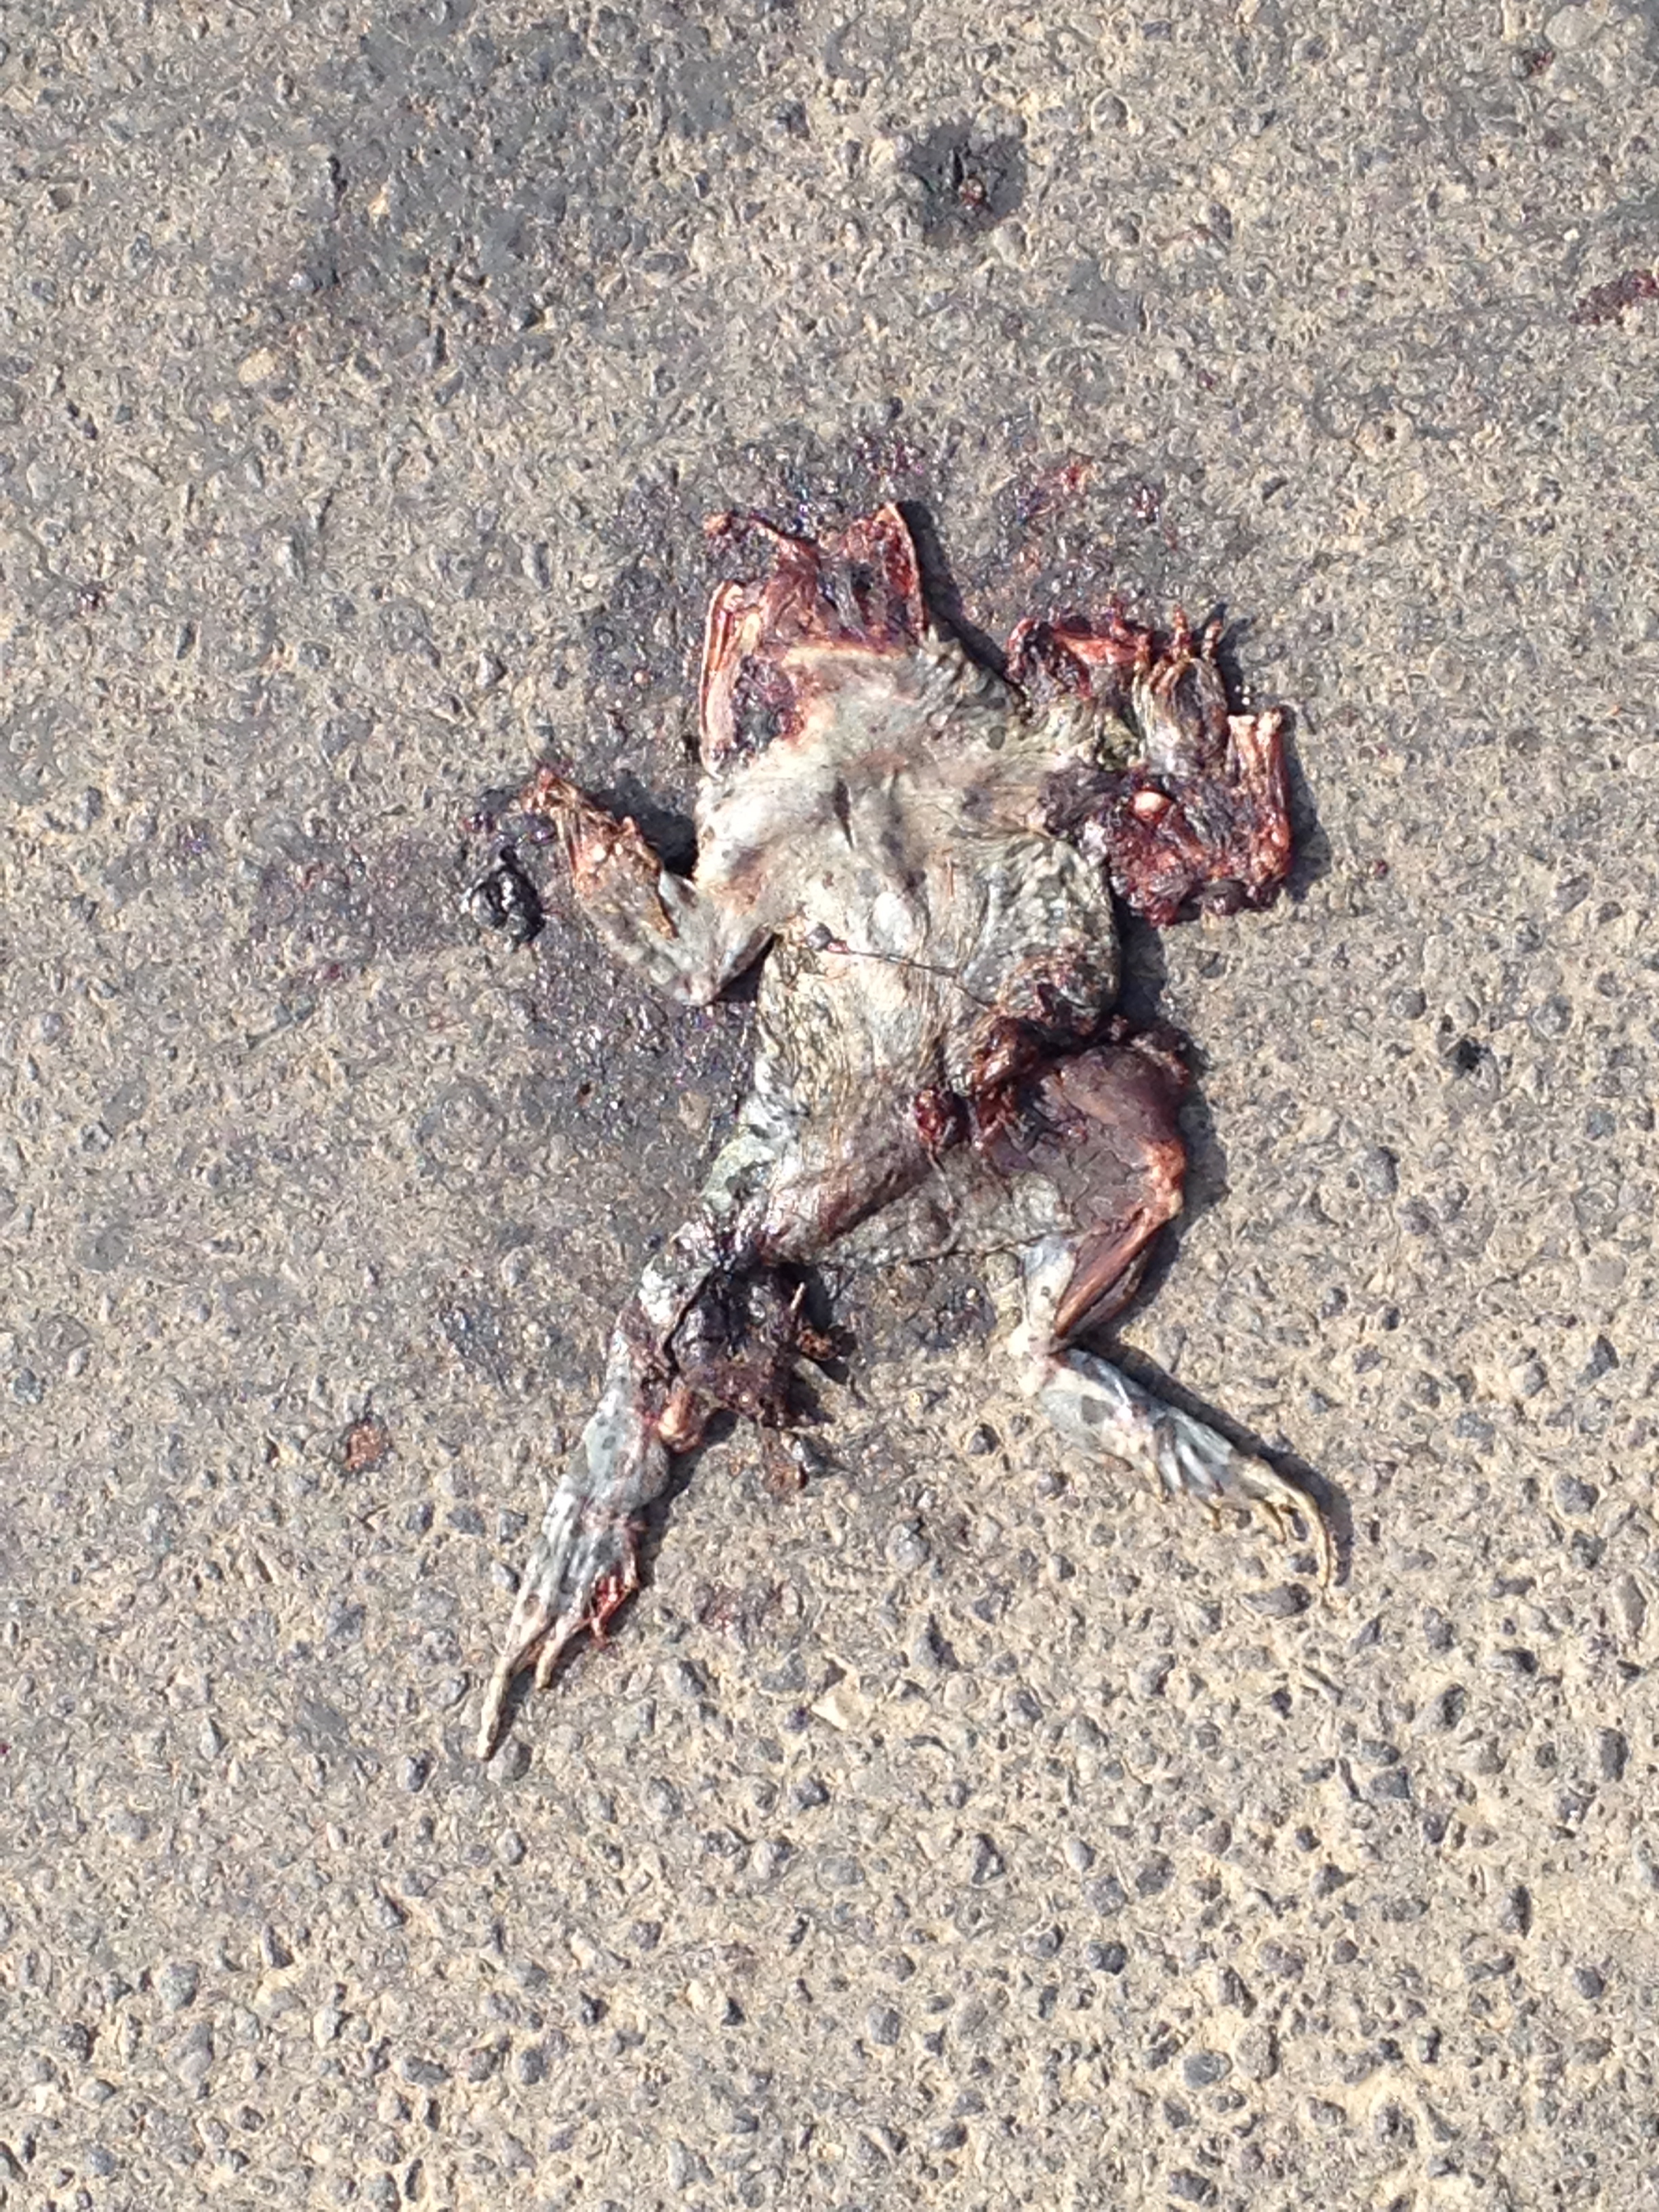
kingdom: Animalia
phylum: Chordata
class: Amphibia
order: Anura
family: Bufonidae
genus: Bufotes
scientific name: Bufotes viridis
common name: European green toad
